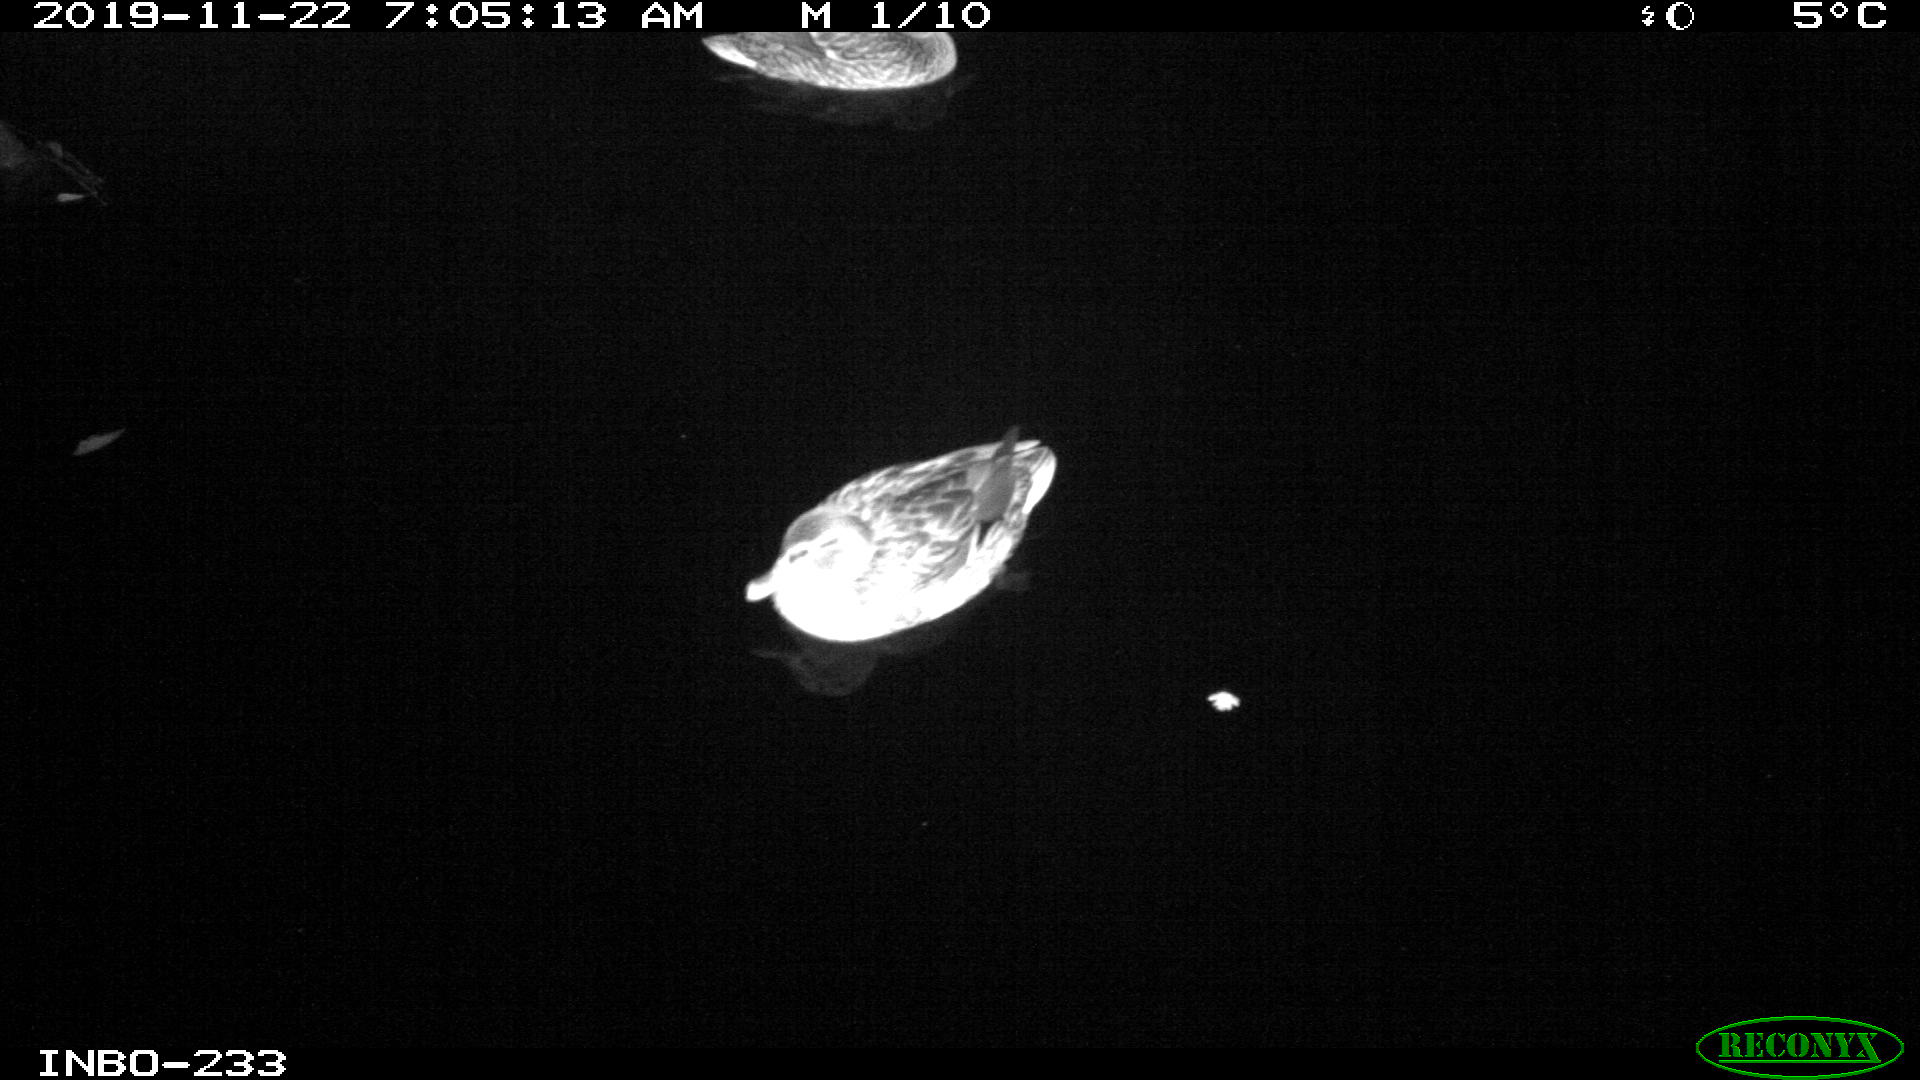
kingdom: Animalia
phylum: Chordata
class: Aves
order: Anseriformes
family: Anatidae
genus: Anas
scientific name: Anas platyrhynchos
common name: Mallard
